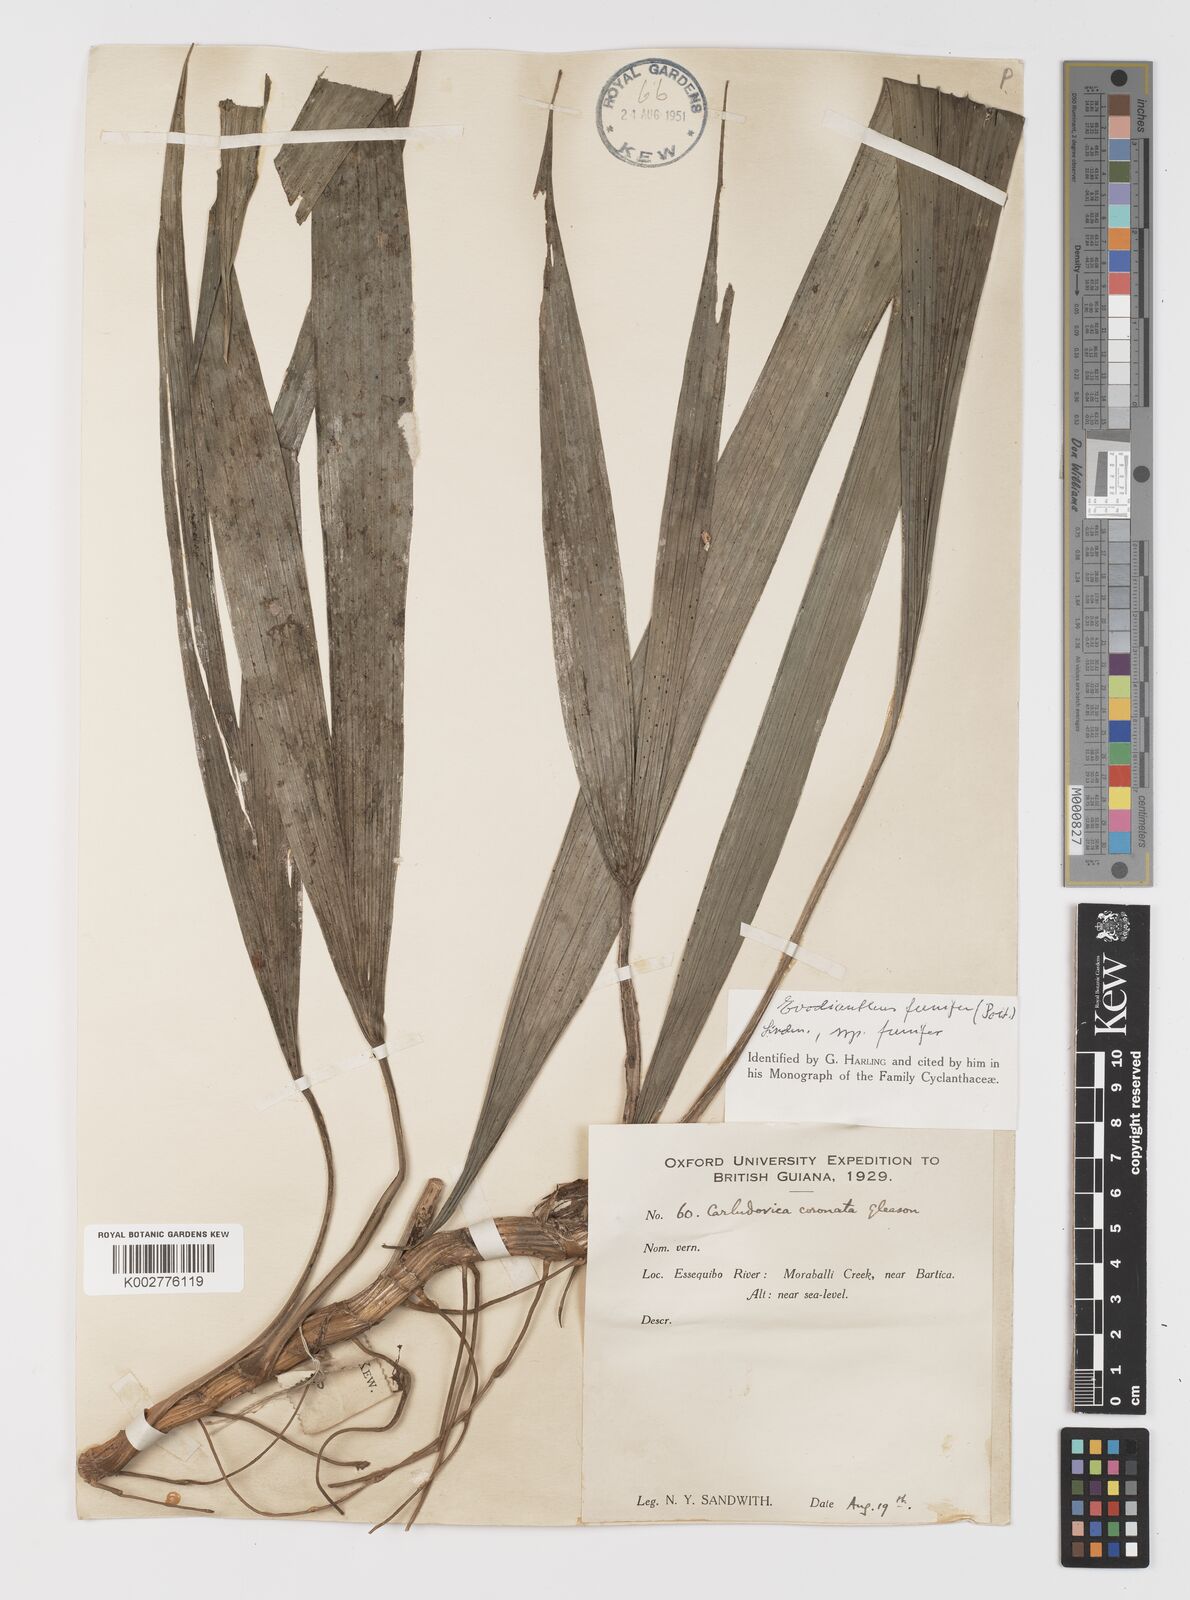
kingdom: Plantae
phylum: Tracheophyta
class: Liliopsida
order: Pandanales
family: Cyclanthaceae
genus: Evodianthus
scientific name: Evodianthus funifer
